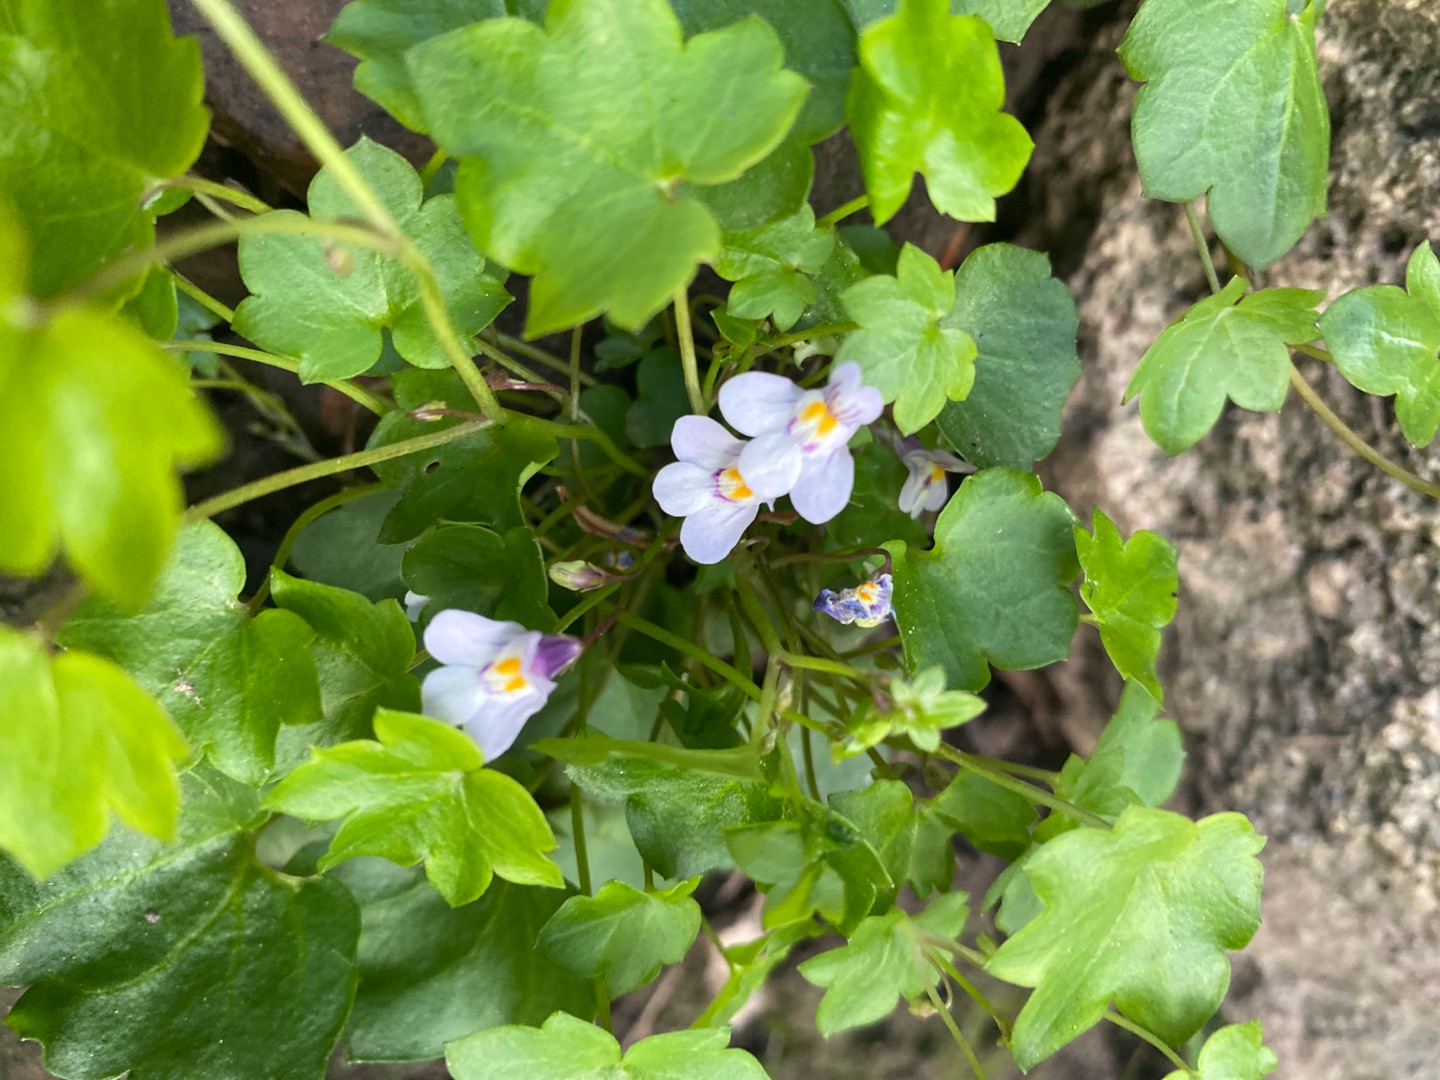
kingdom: Plantae
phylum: Tracheophyta
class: Magnoliopsida
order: Lamiales
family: Plantaginaceae
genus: Cymbalaria
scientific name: Cymbalaria muralis
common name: Vedbend-torskemund
